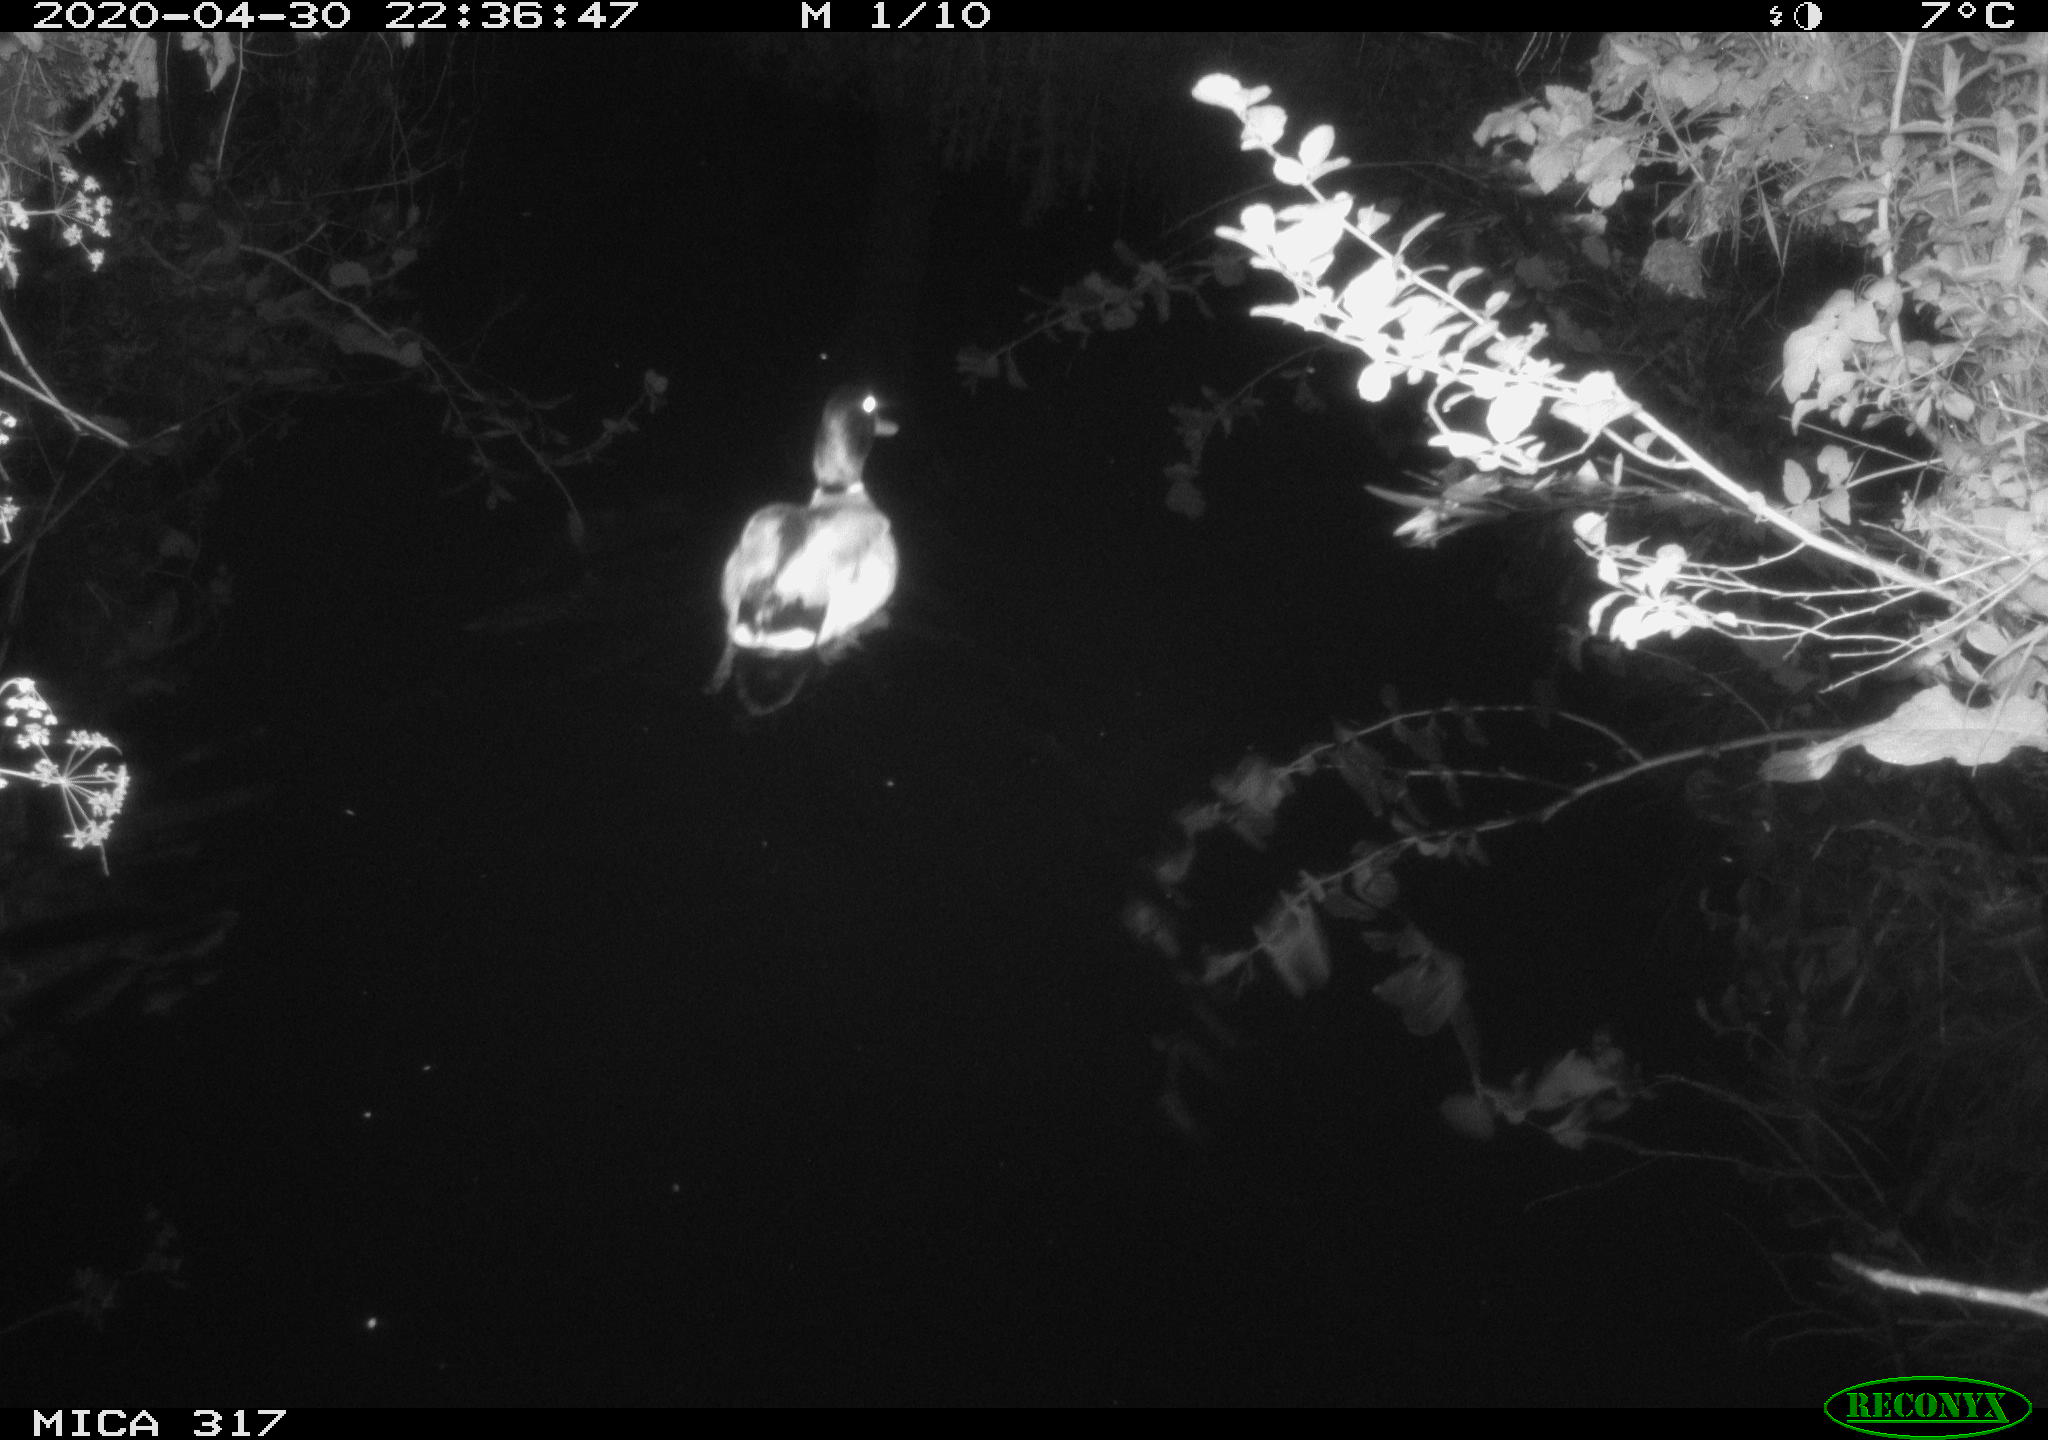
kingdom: Animalia
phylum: Chordata
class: Aves
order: Anseriformes
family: Anatidae
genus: Anas
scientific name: Anas platyrhynchos
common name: Mallard
